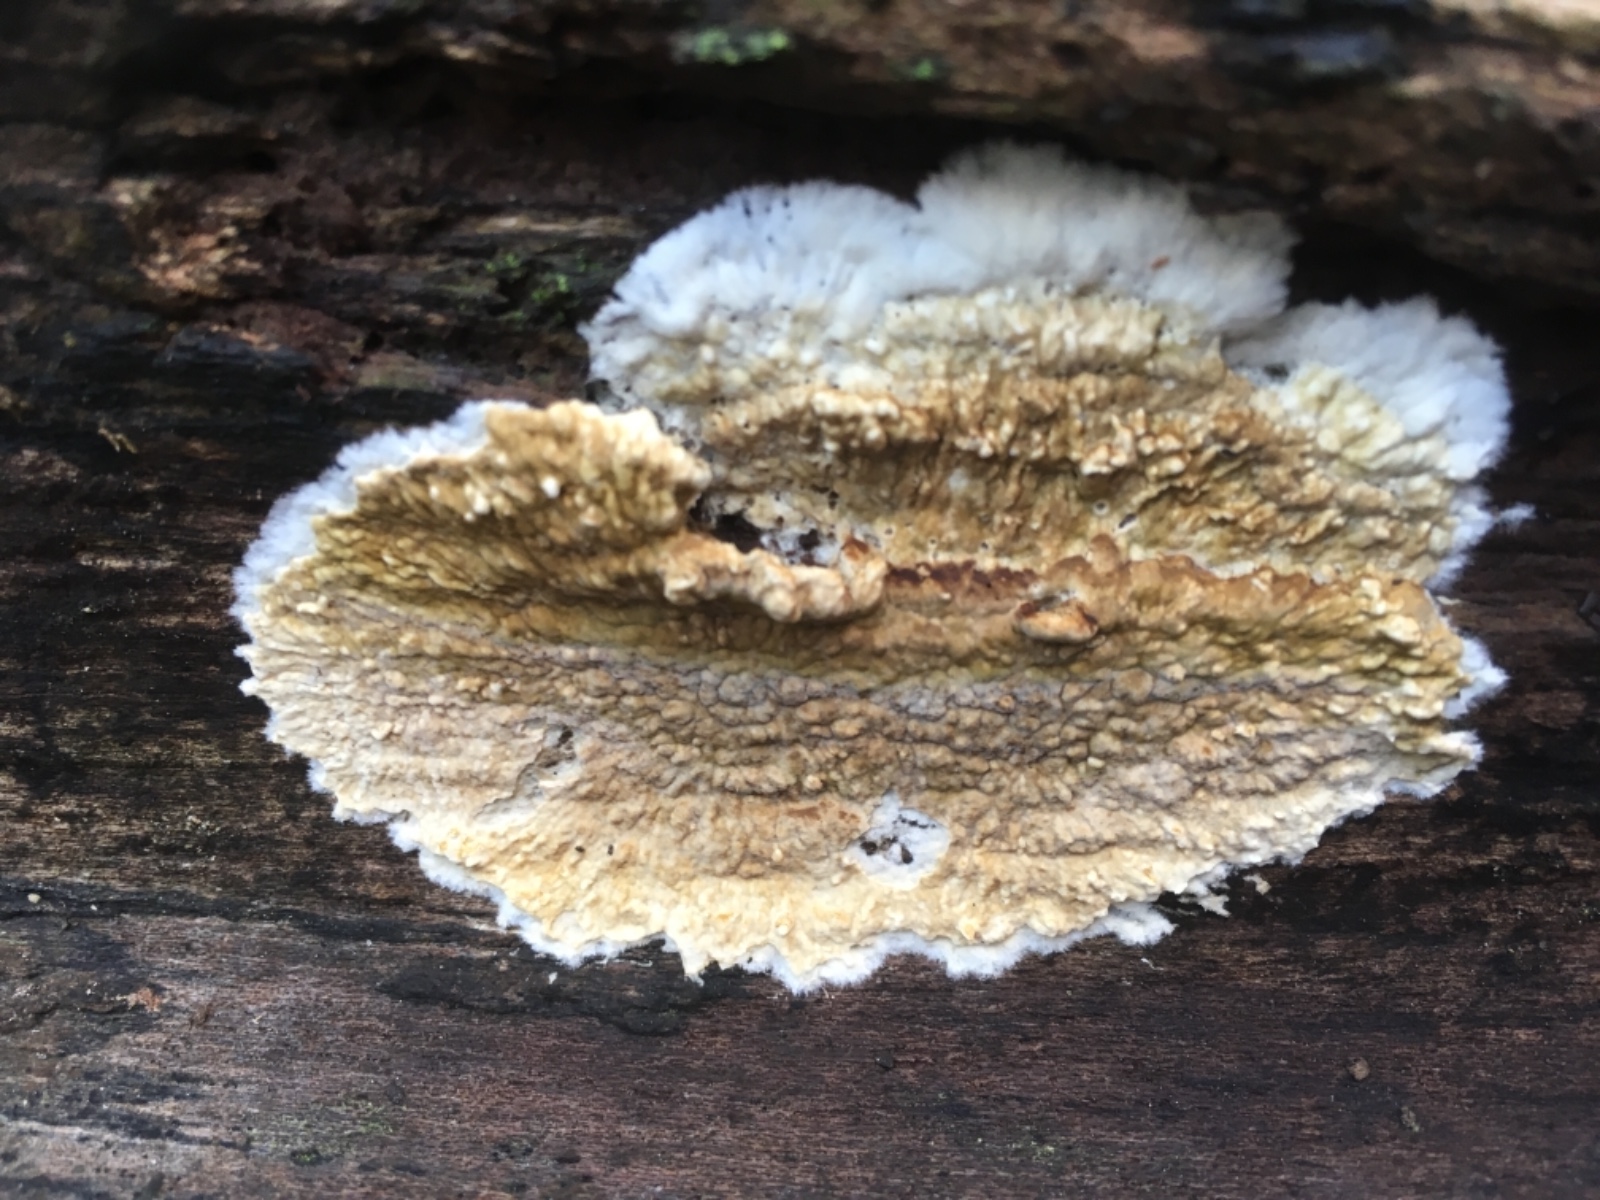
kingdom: Fungi
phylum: Basidiomycota
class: Agaricomycetes
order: Boletales
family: Coniophoraceae
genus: Coniophora
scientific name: Coniophora puteana
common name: gul tømmersvamp
